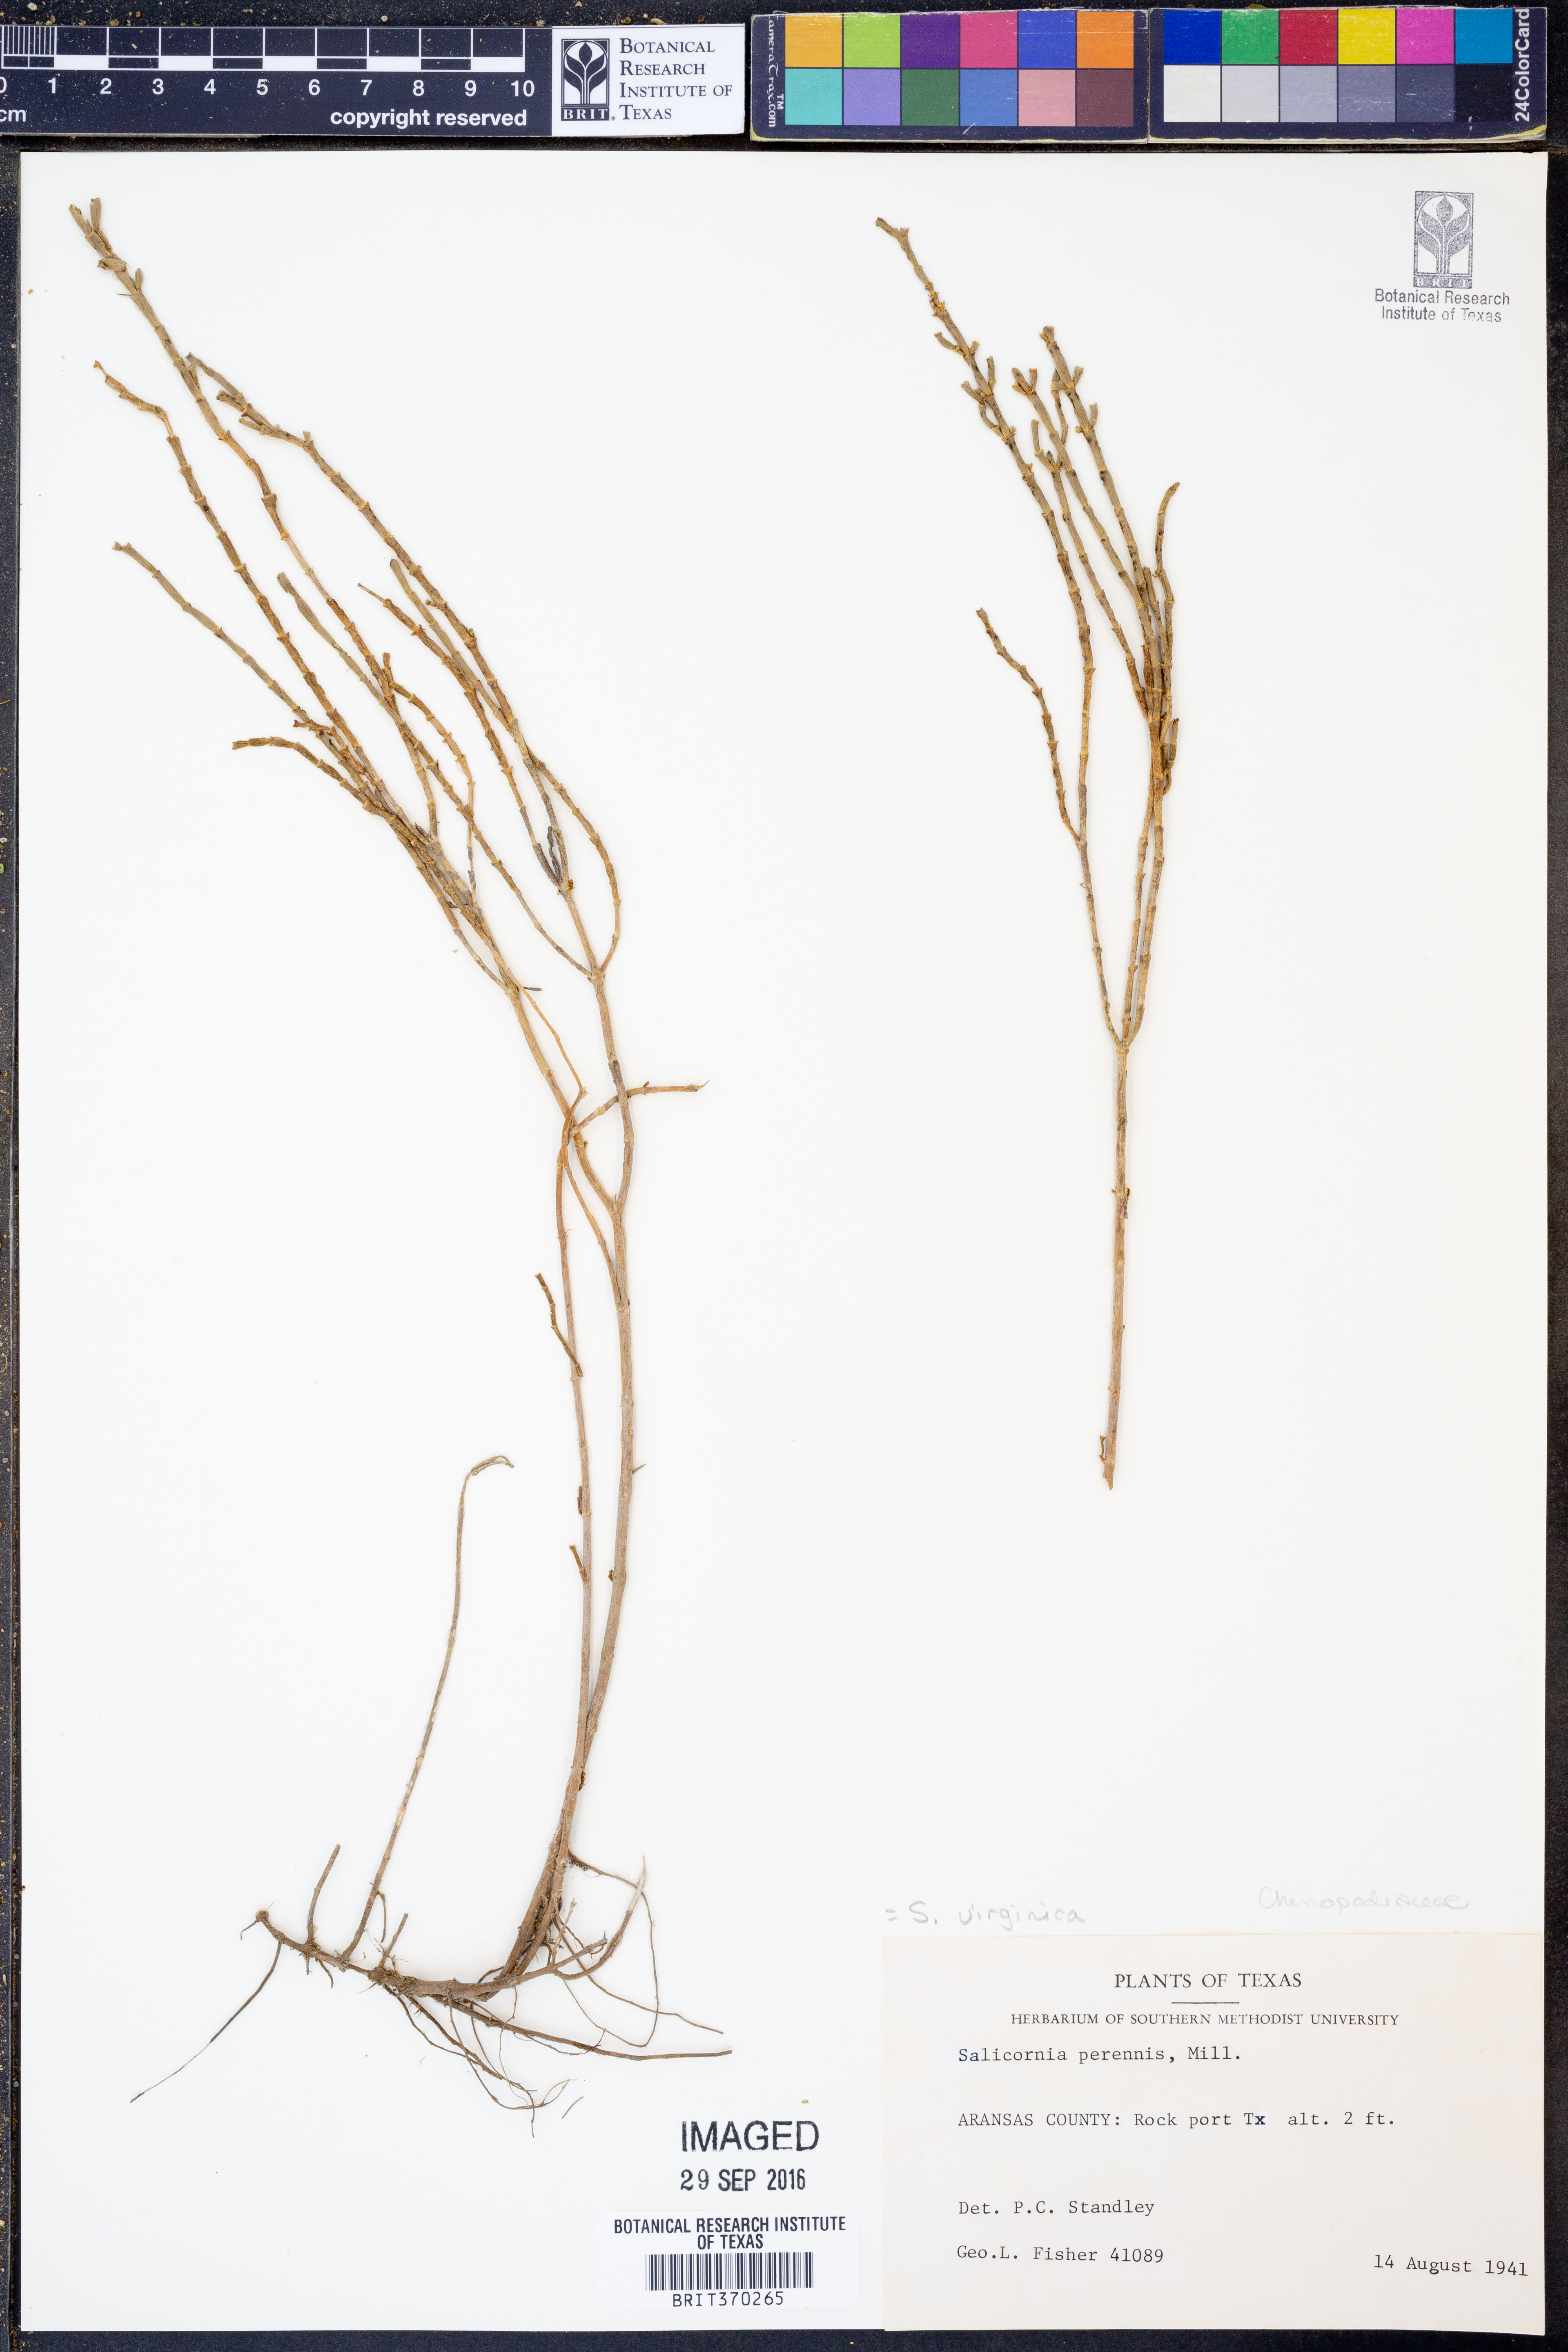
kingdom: Plantae
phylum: Tracheophyta
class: Magnoliopsida
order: Caryophyllales
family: Amaranthaceae
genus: Salicornia
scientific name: Salicornia virginica
